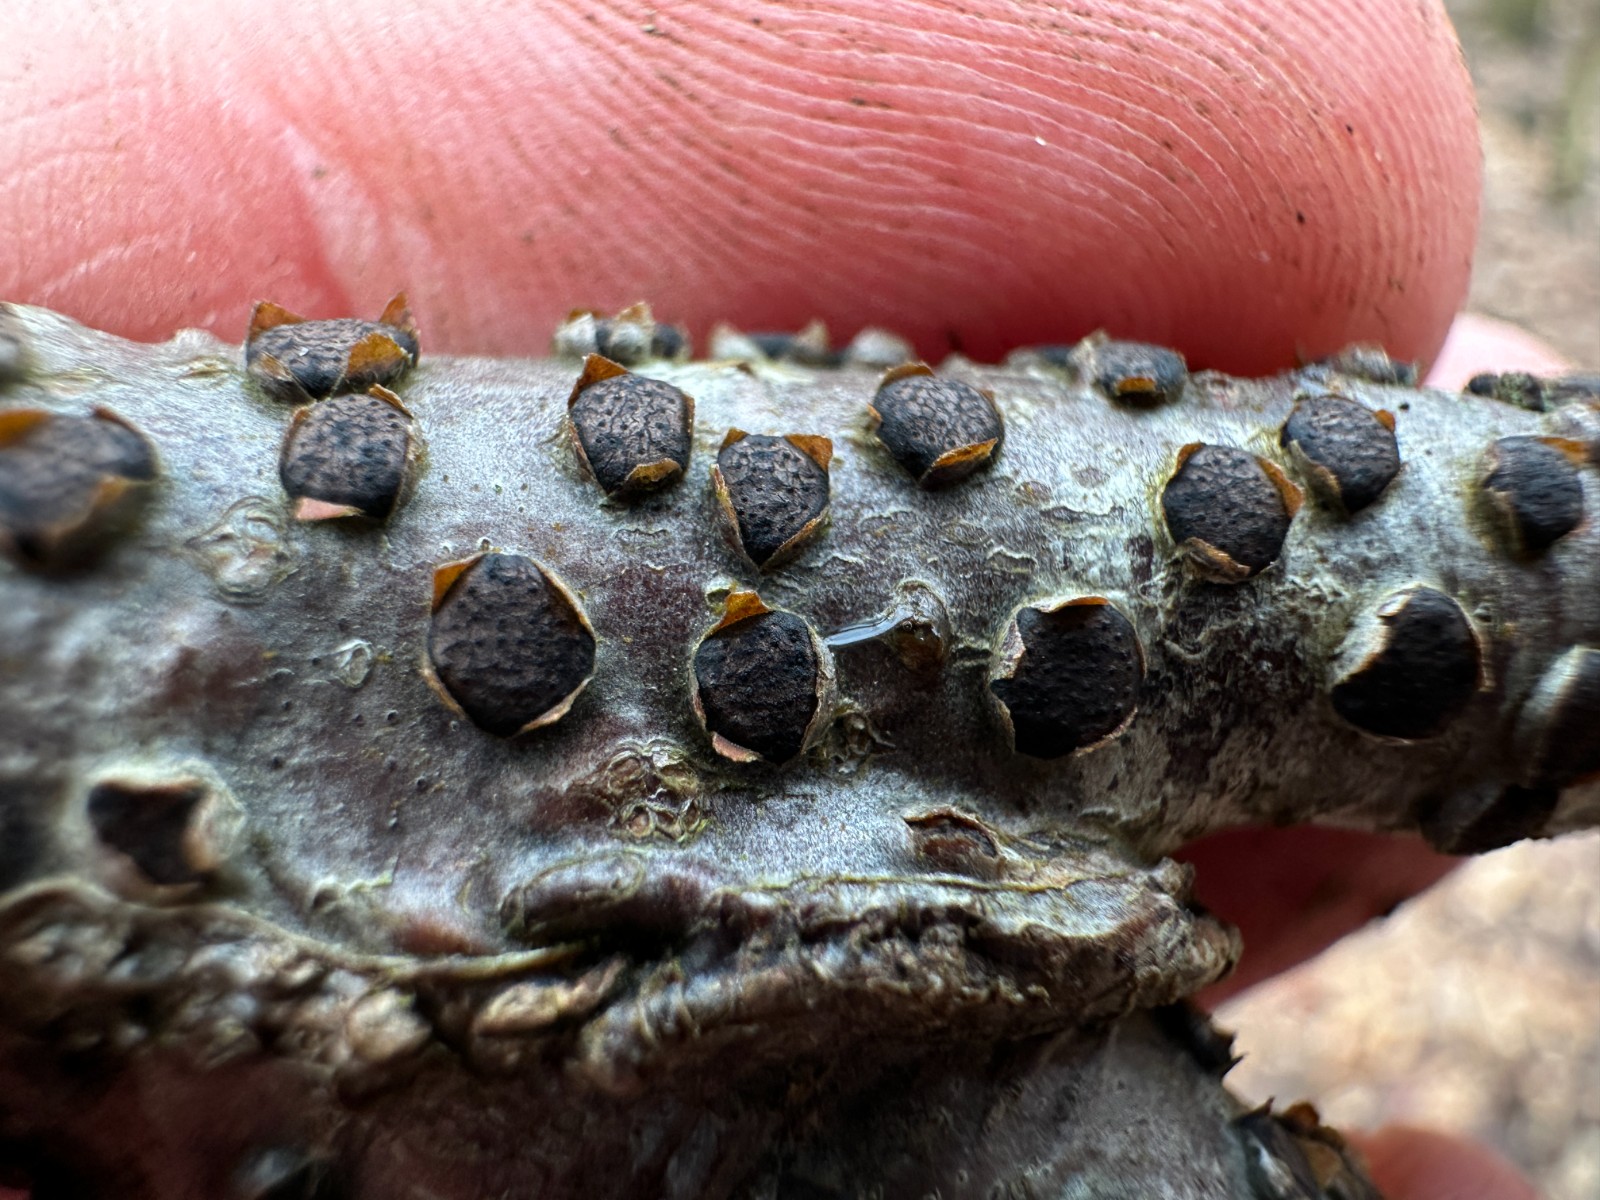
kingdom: Fungi
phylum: Ascomycota
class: Sordariomycetes
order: Xylariales
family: Diatrypaceae
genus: Diatrype
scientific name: Diatrype disciformis
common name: kant-kulskorpe
